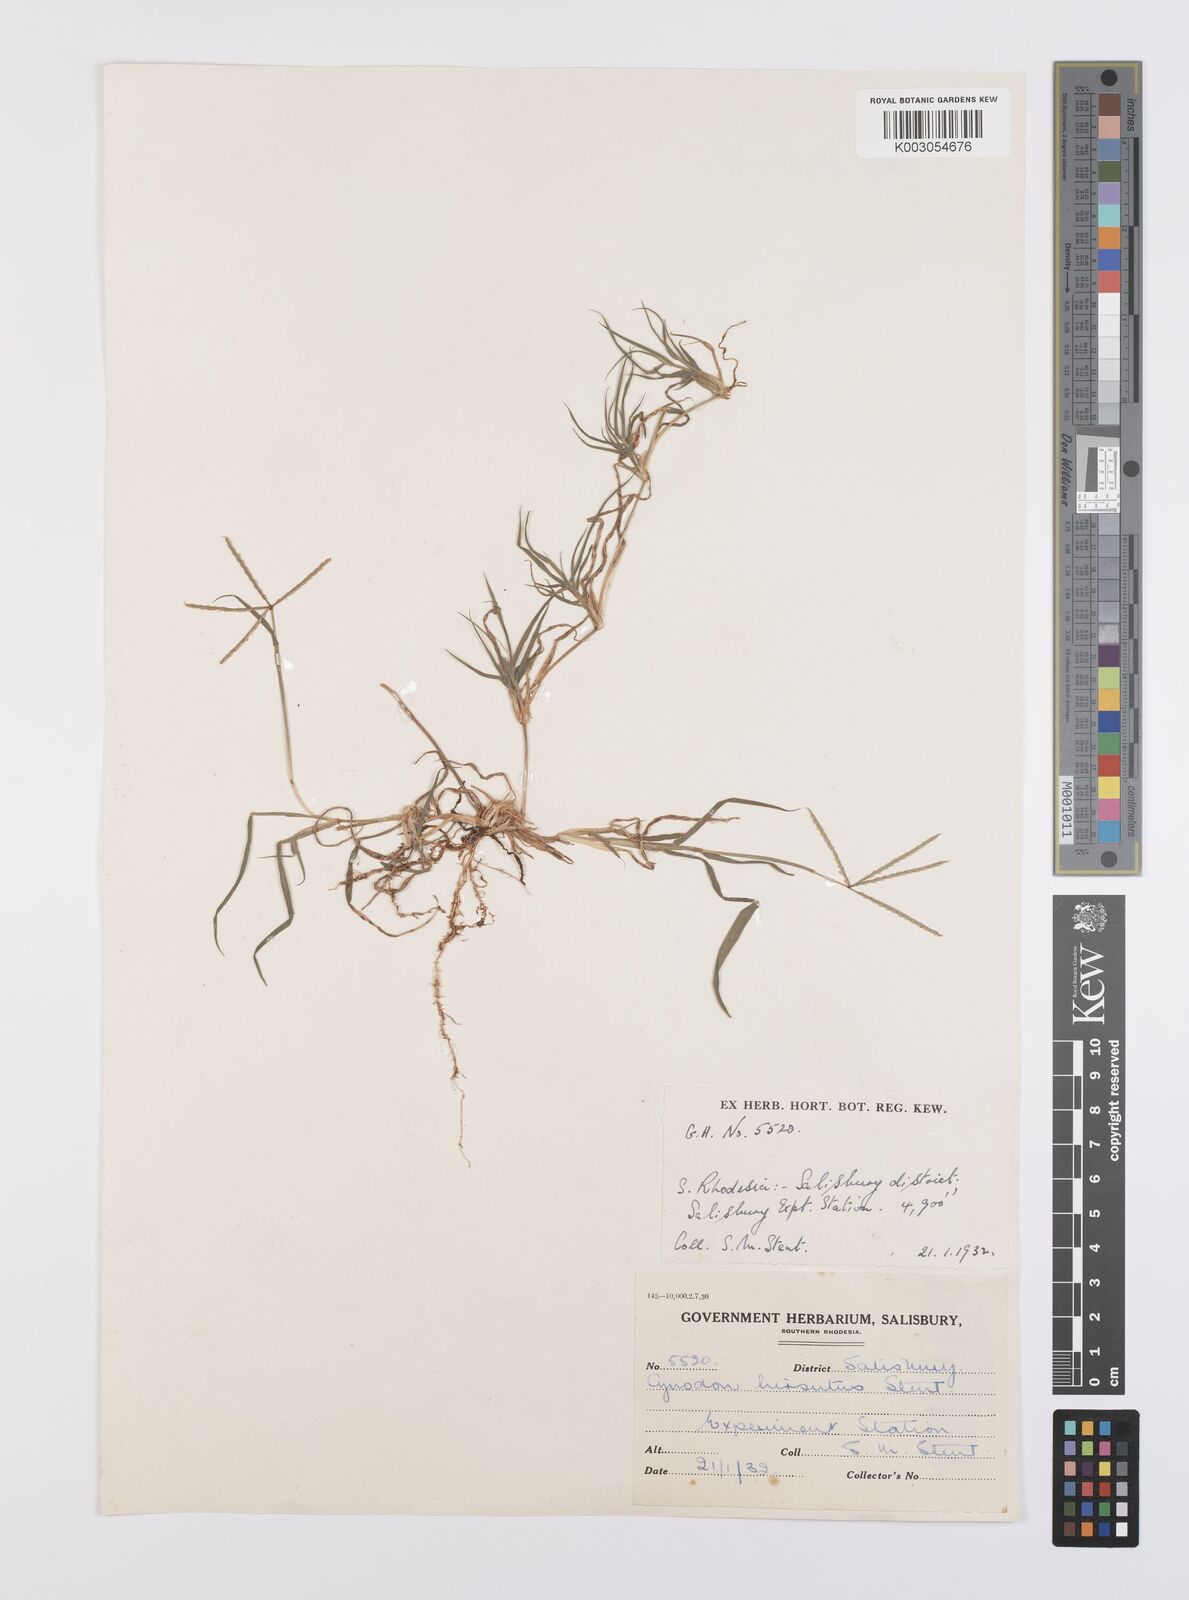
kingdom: Plantae
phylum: Tracheophyta
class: Liliopsida
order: Poales
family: Poaceae
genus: Cynodon
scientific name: Cynodon incompletus
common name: African bermuda-grass
